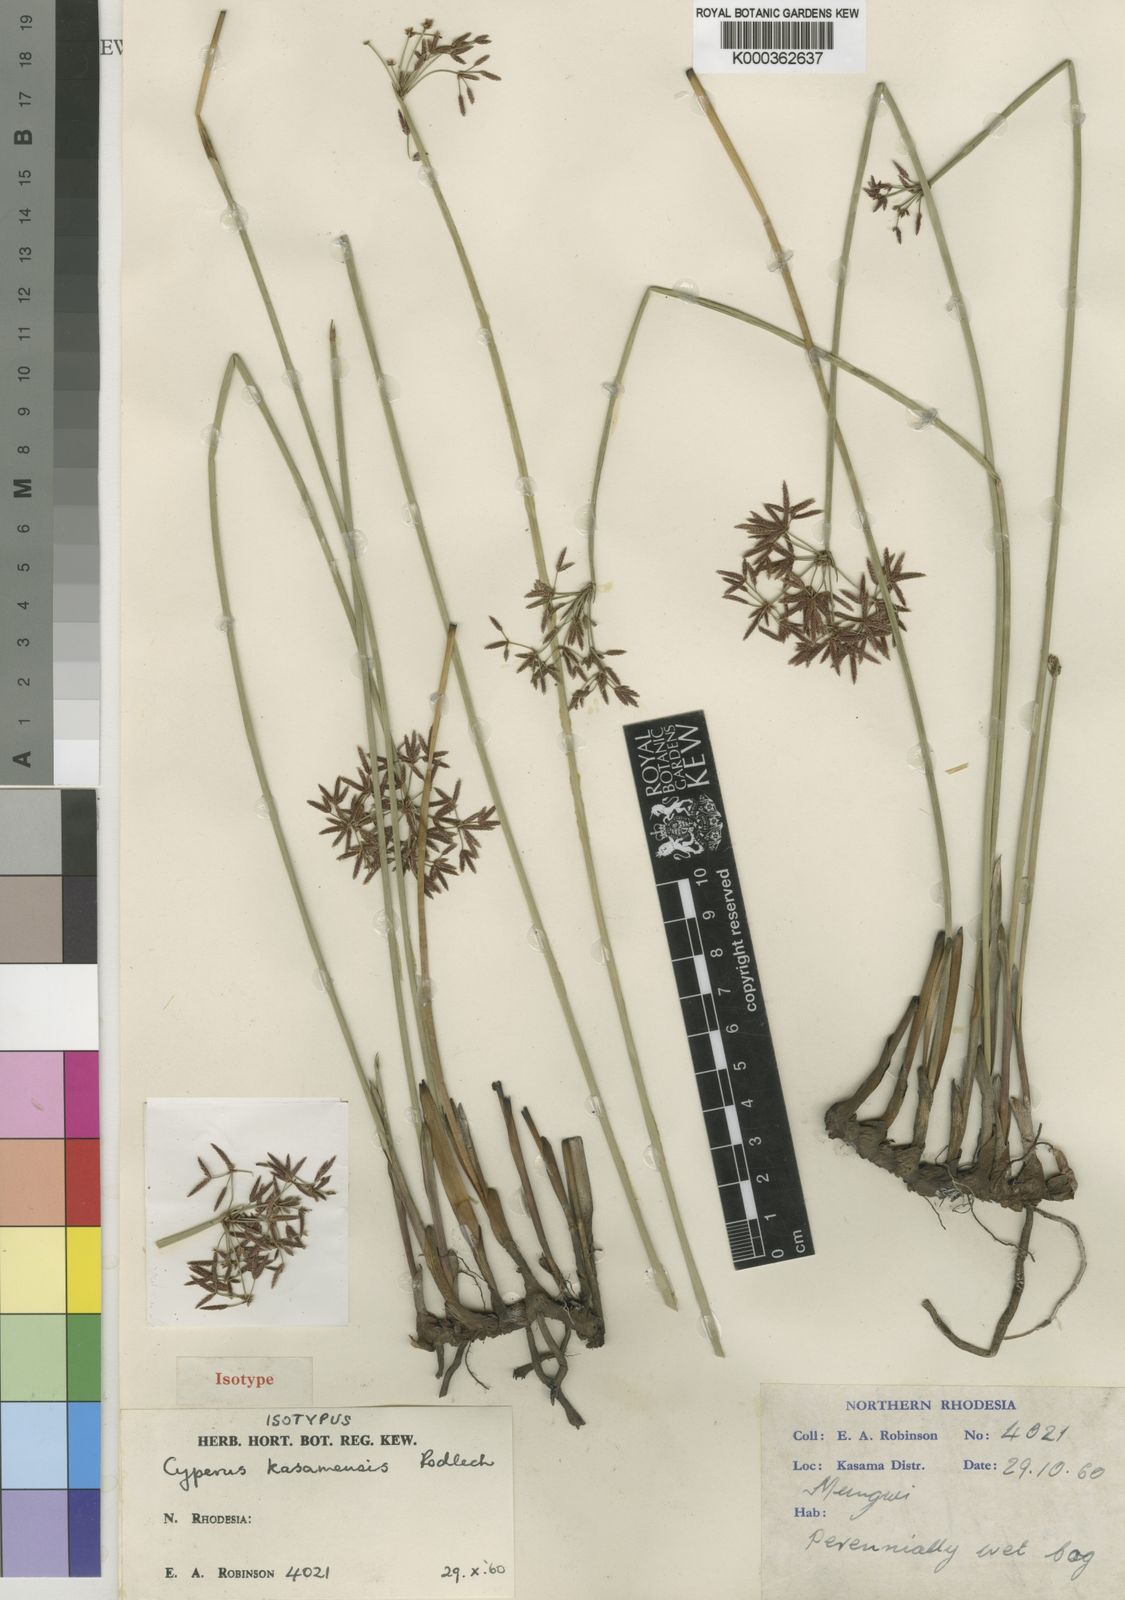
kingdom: Plantae
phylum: Tracheophyta
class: Liliopsida
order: Poales
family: Cyperaceae
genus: Cyperus
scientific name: Cyperus denudatus
